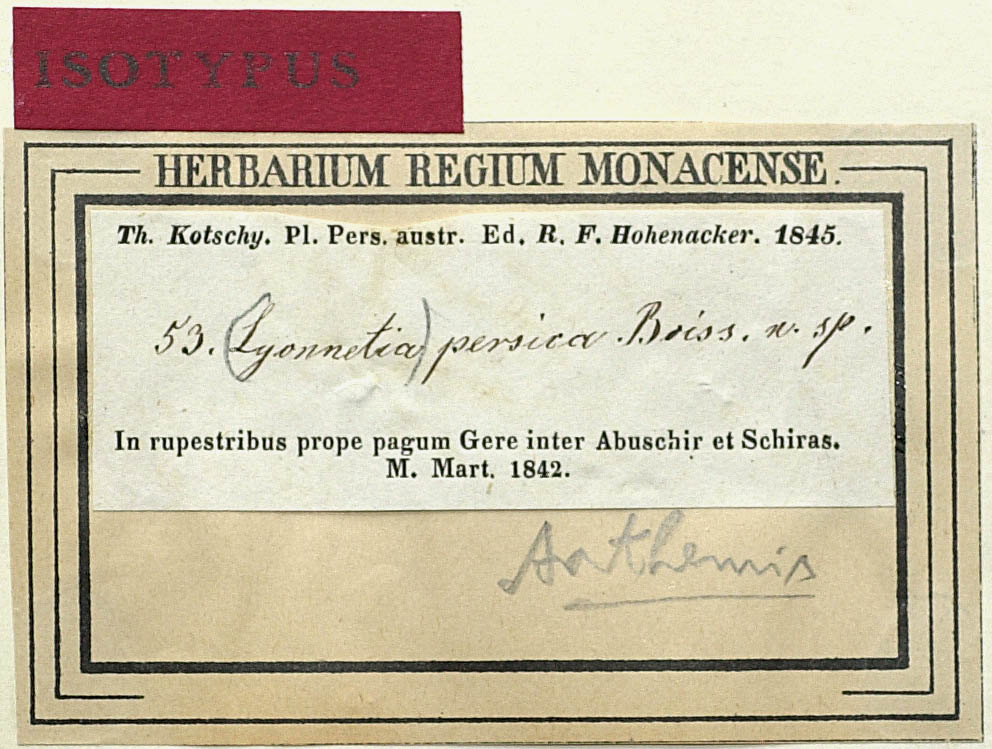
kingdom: Plantae
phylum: Tracheophyta
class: Magnoliopsida
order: Asterales
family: Asteraceae
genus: Anthemis
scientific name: Anthemis persica
